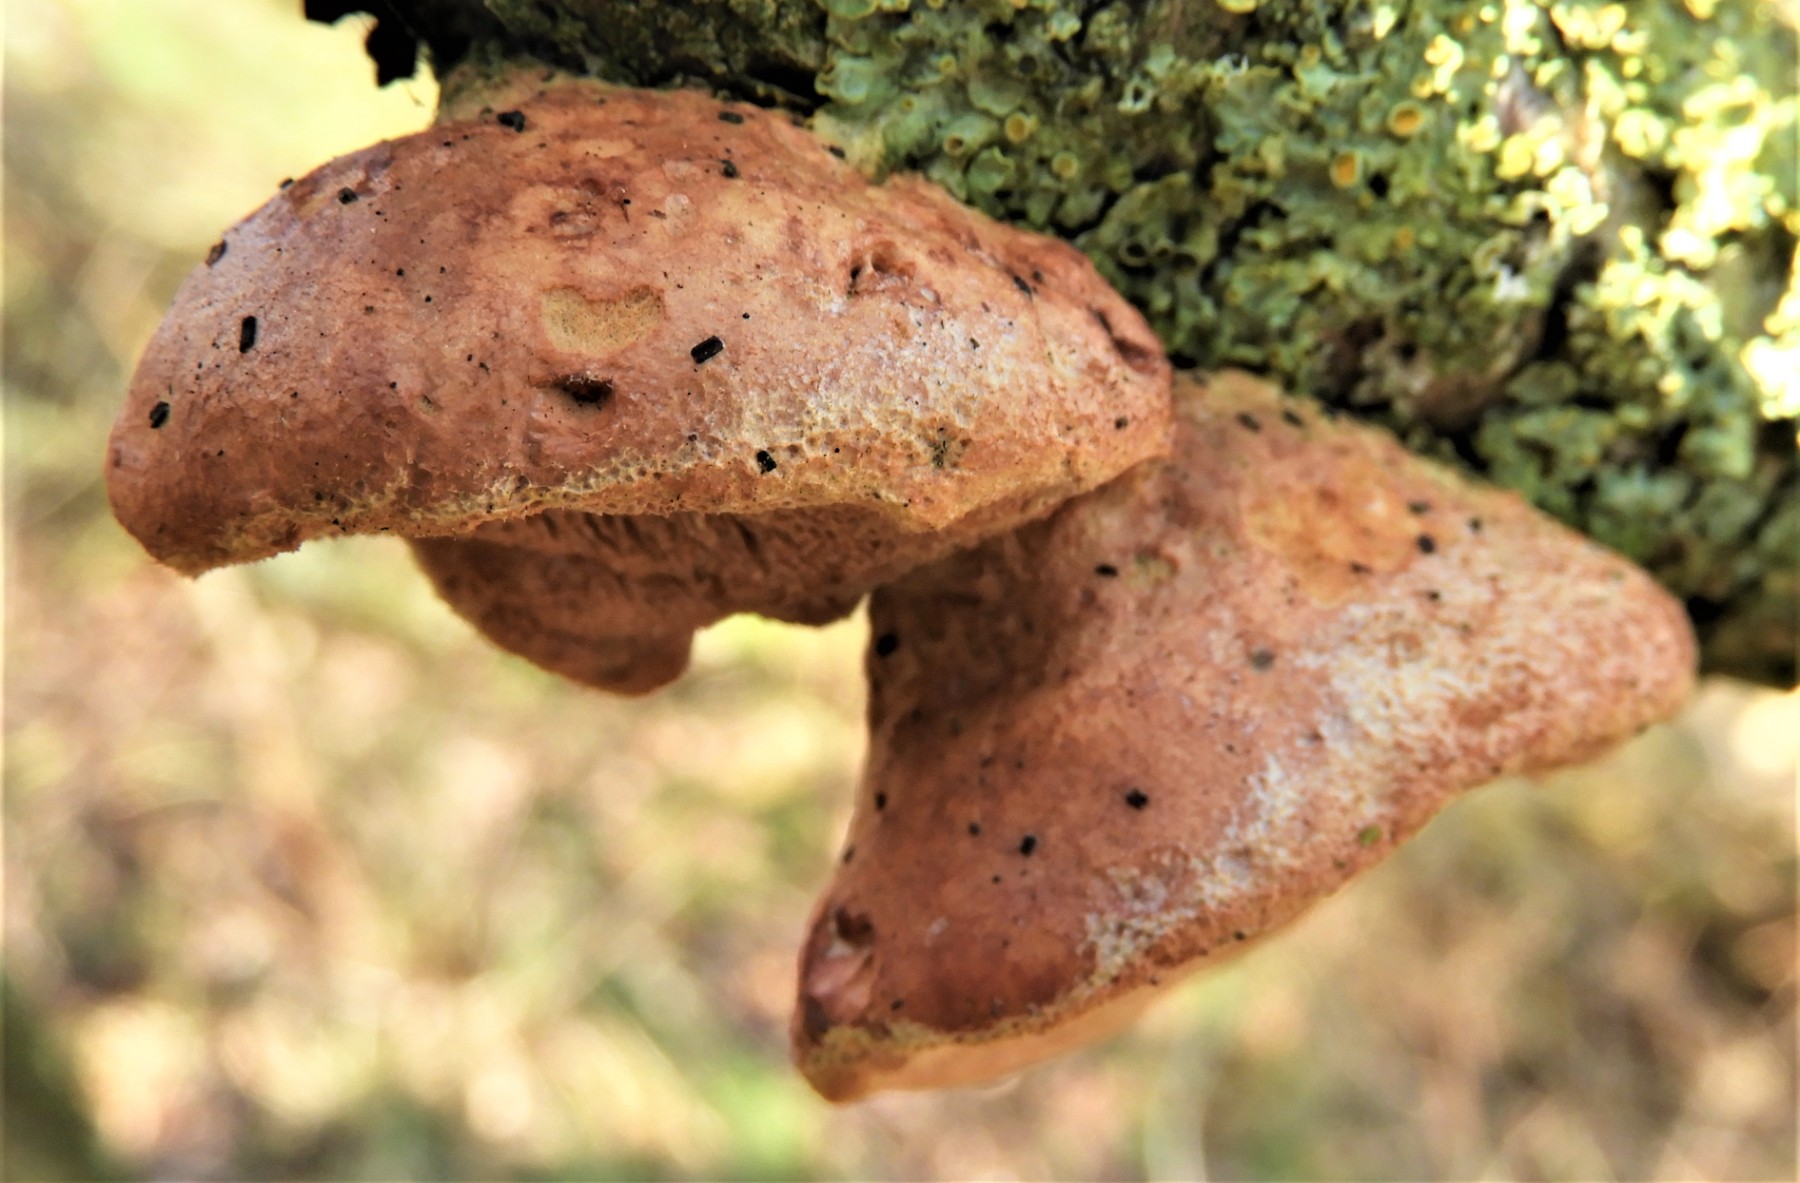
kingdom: Fungi
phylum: Basidiomycota
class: Agaricomycetes
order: Polyporales
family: Phanerochaetaceae
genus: Hapalopilus
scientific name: Hapalopilus rutilans
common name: rødlig okkerporesvamp
